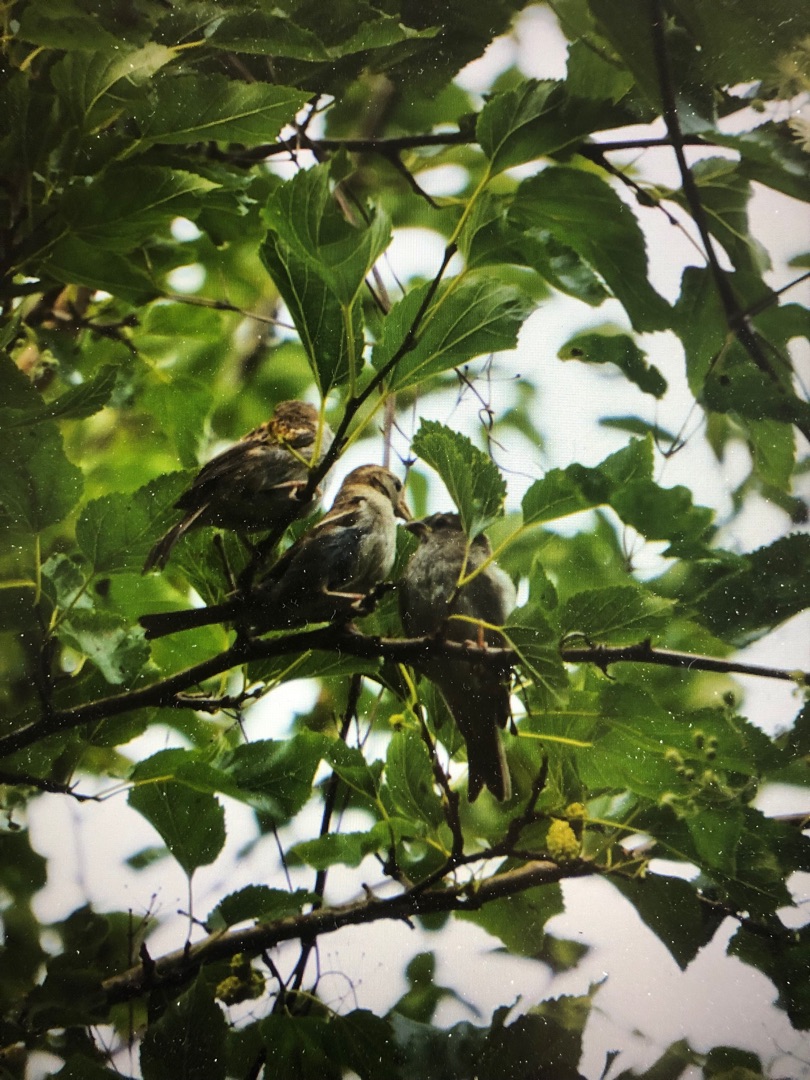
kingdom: Animalia
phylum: Chordata
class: Aves
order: Passeriformes
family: Passeridae
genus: Passer
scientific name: Passer domesticus
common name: Gråspurv
